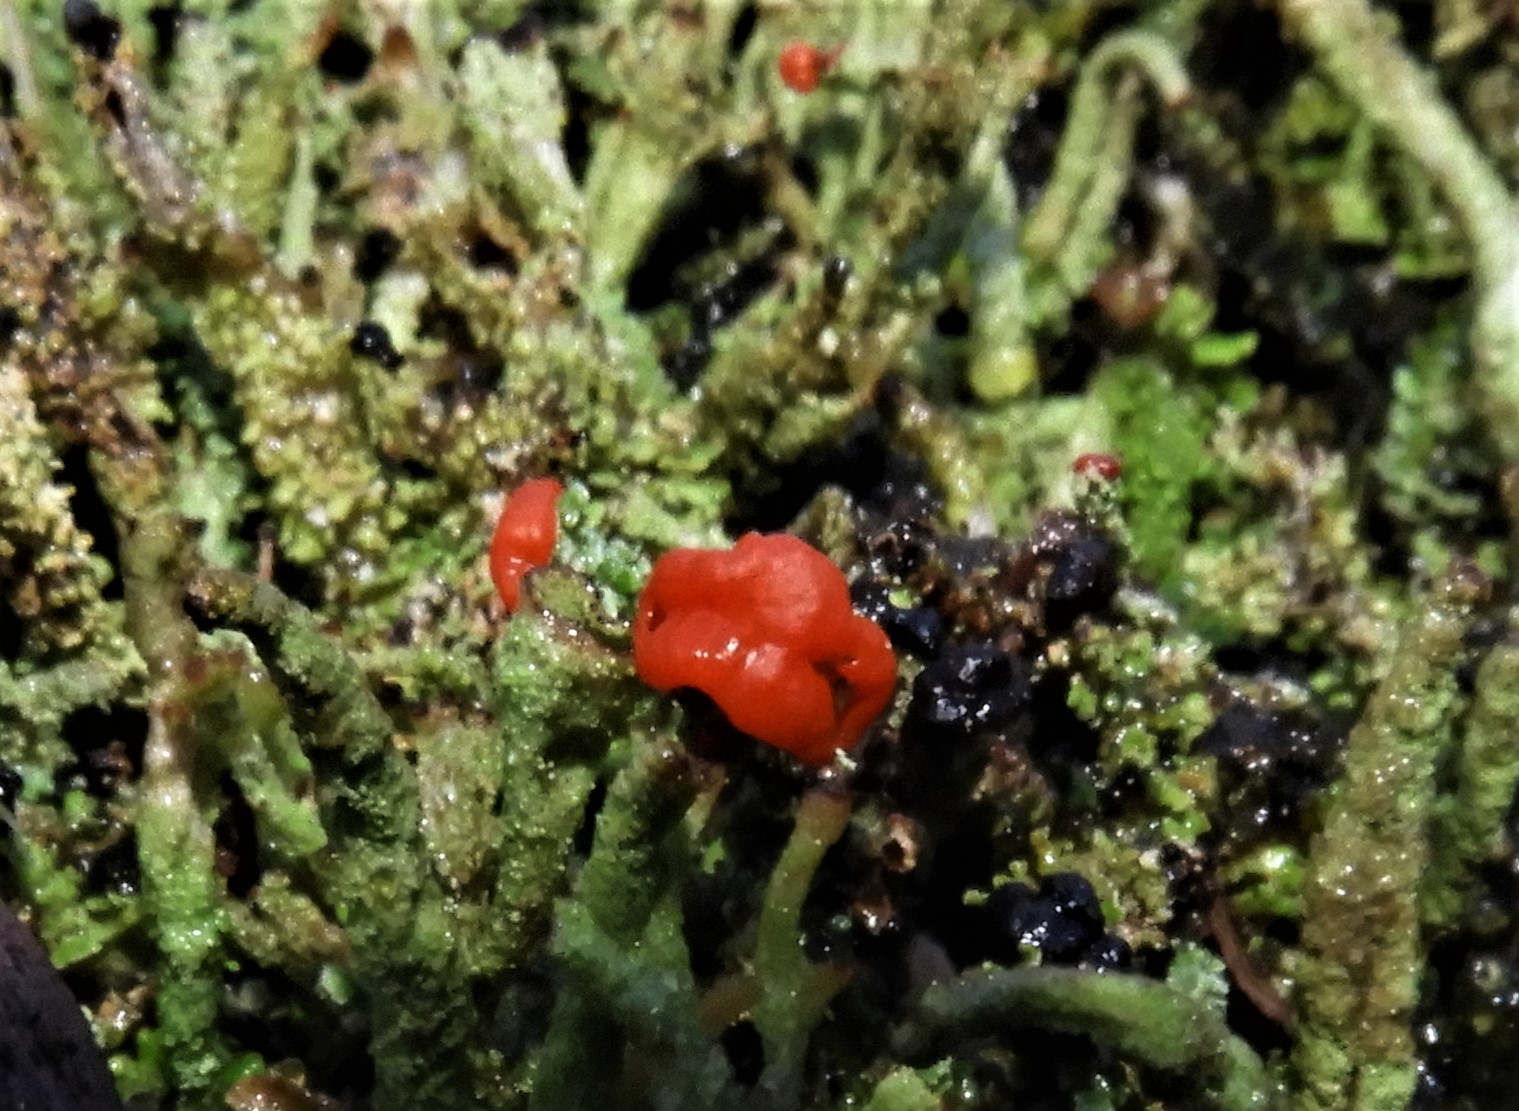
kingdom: Fungi
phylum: Ascomycota
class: Lecanoromycetes
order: Lecanorales
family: Cladoniaceae
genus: Cladonia
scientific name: Cladonia floerkeana
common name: lakrød bægerlav
